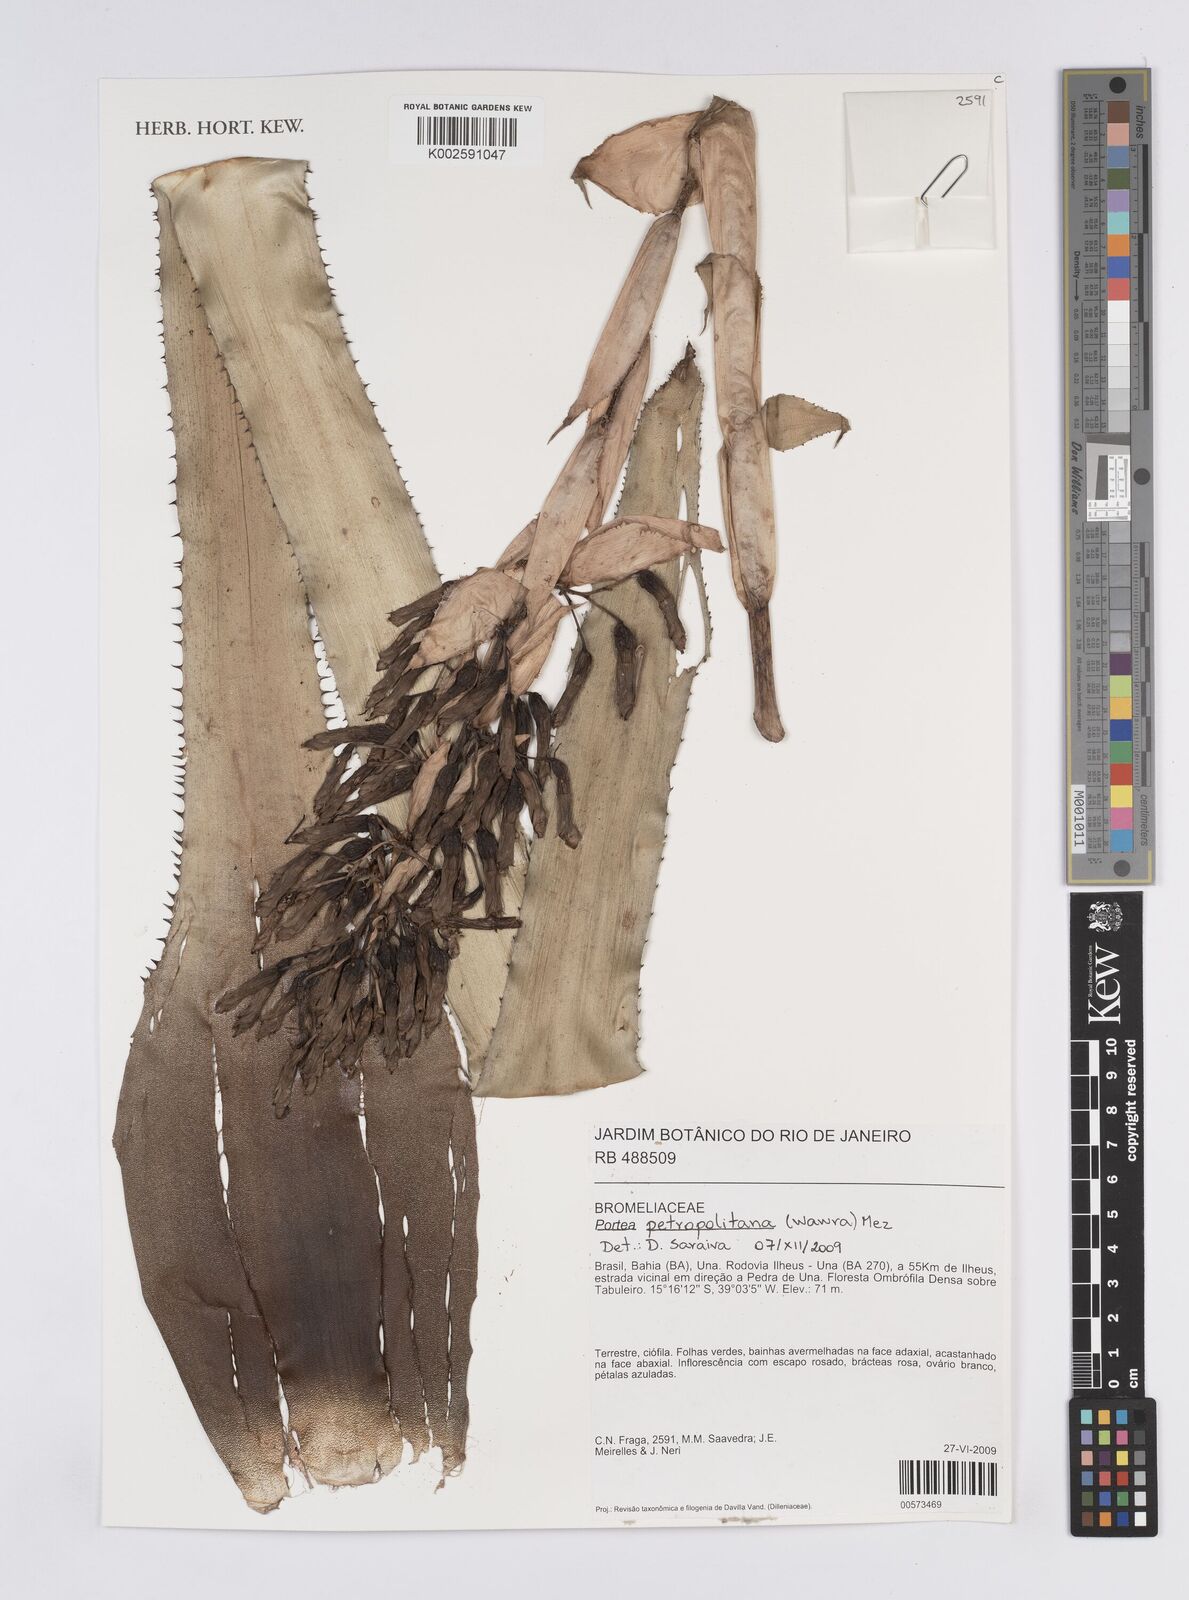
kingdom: Plantae
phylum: Tracheophyta
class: Liliopsida
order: Poales
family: Bromeliaceae
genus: Portea
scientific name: Portea petropolitana
